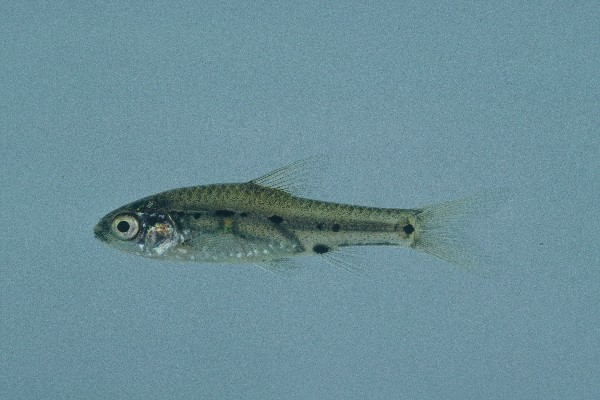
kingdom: Animalia
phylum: Chordata
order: Cypriniformes
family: Cyprinidae
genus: Enteromius
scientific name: Enteromius lineomaculatus
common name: Line-spotted barb
